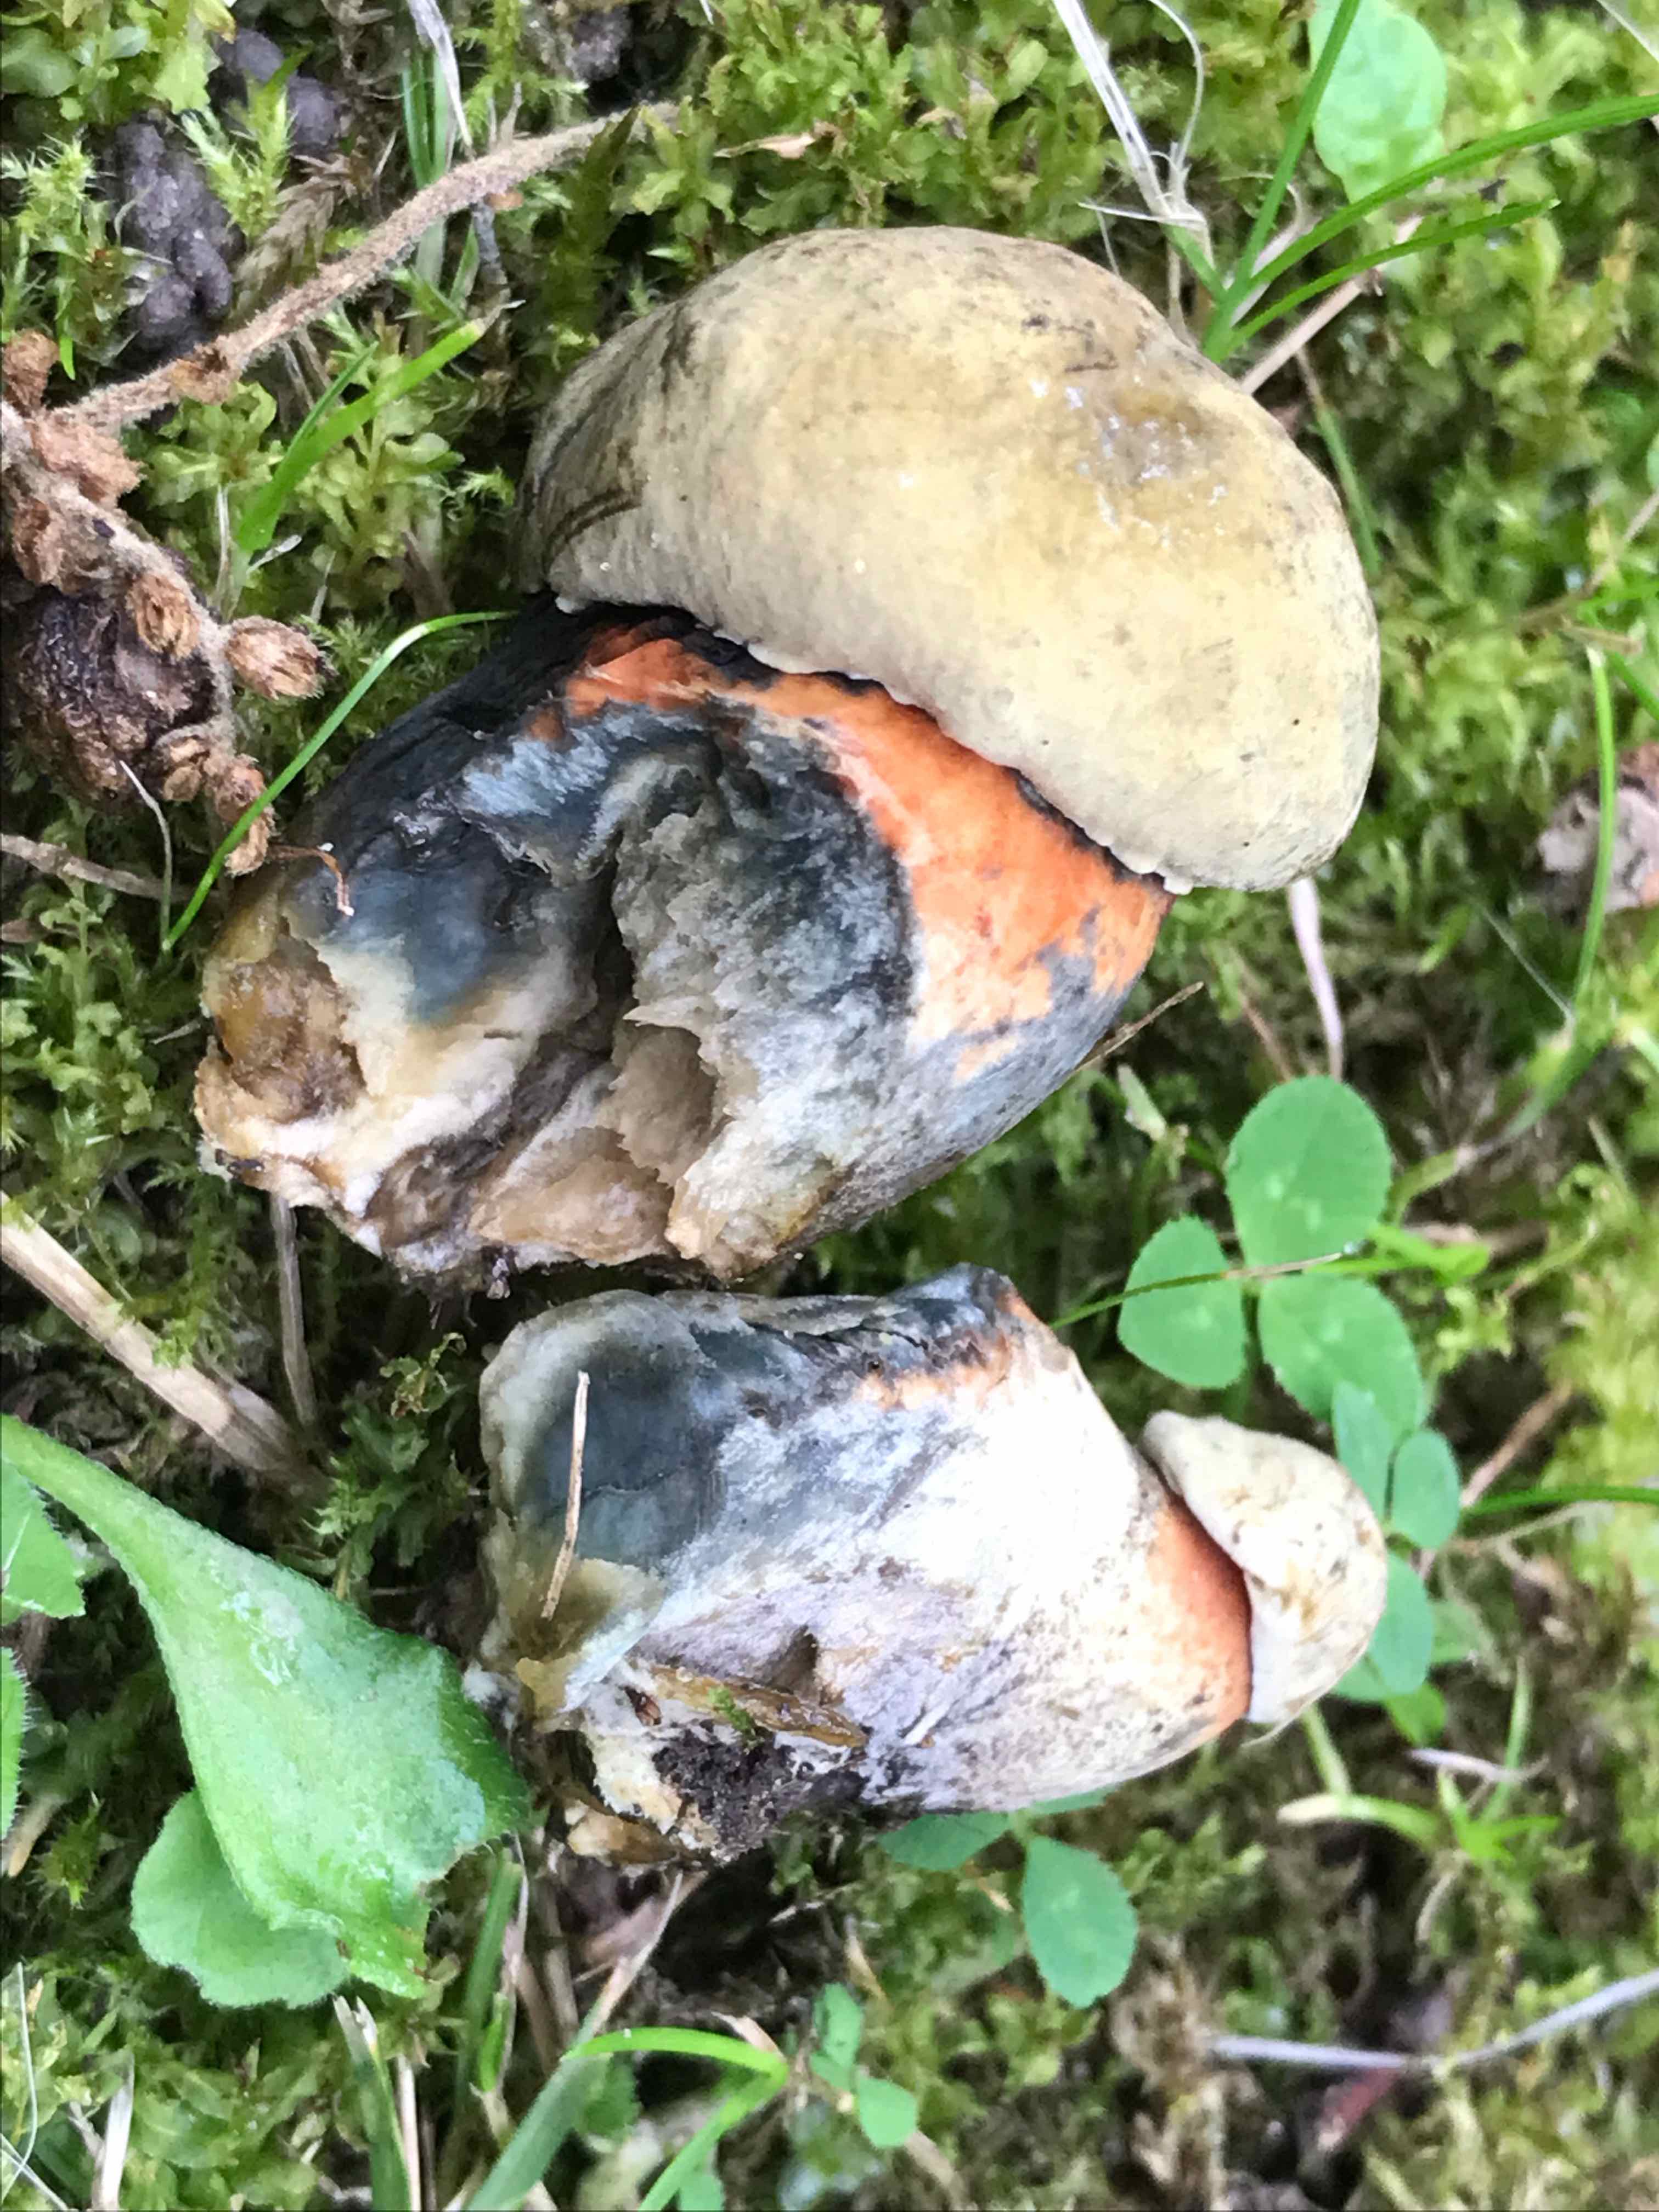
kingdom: Fungi
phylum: Basidiomycota
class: Agaricomycetes
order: Boletales
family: Boletaceae
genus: Suillellus
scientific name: Suillellus luridus
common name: netstokket indigorørhat
